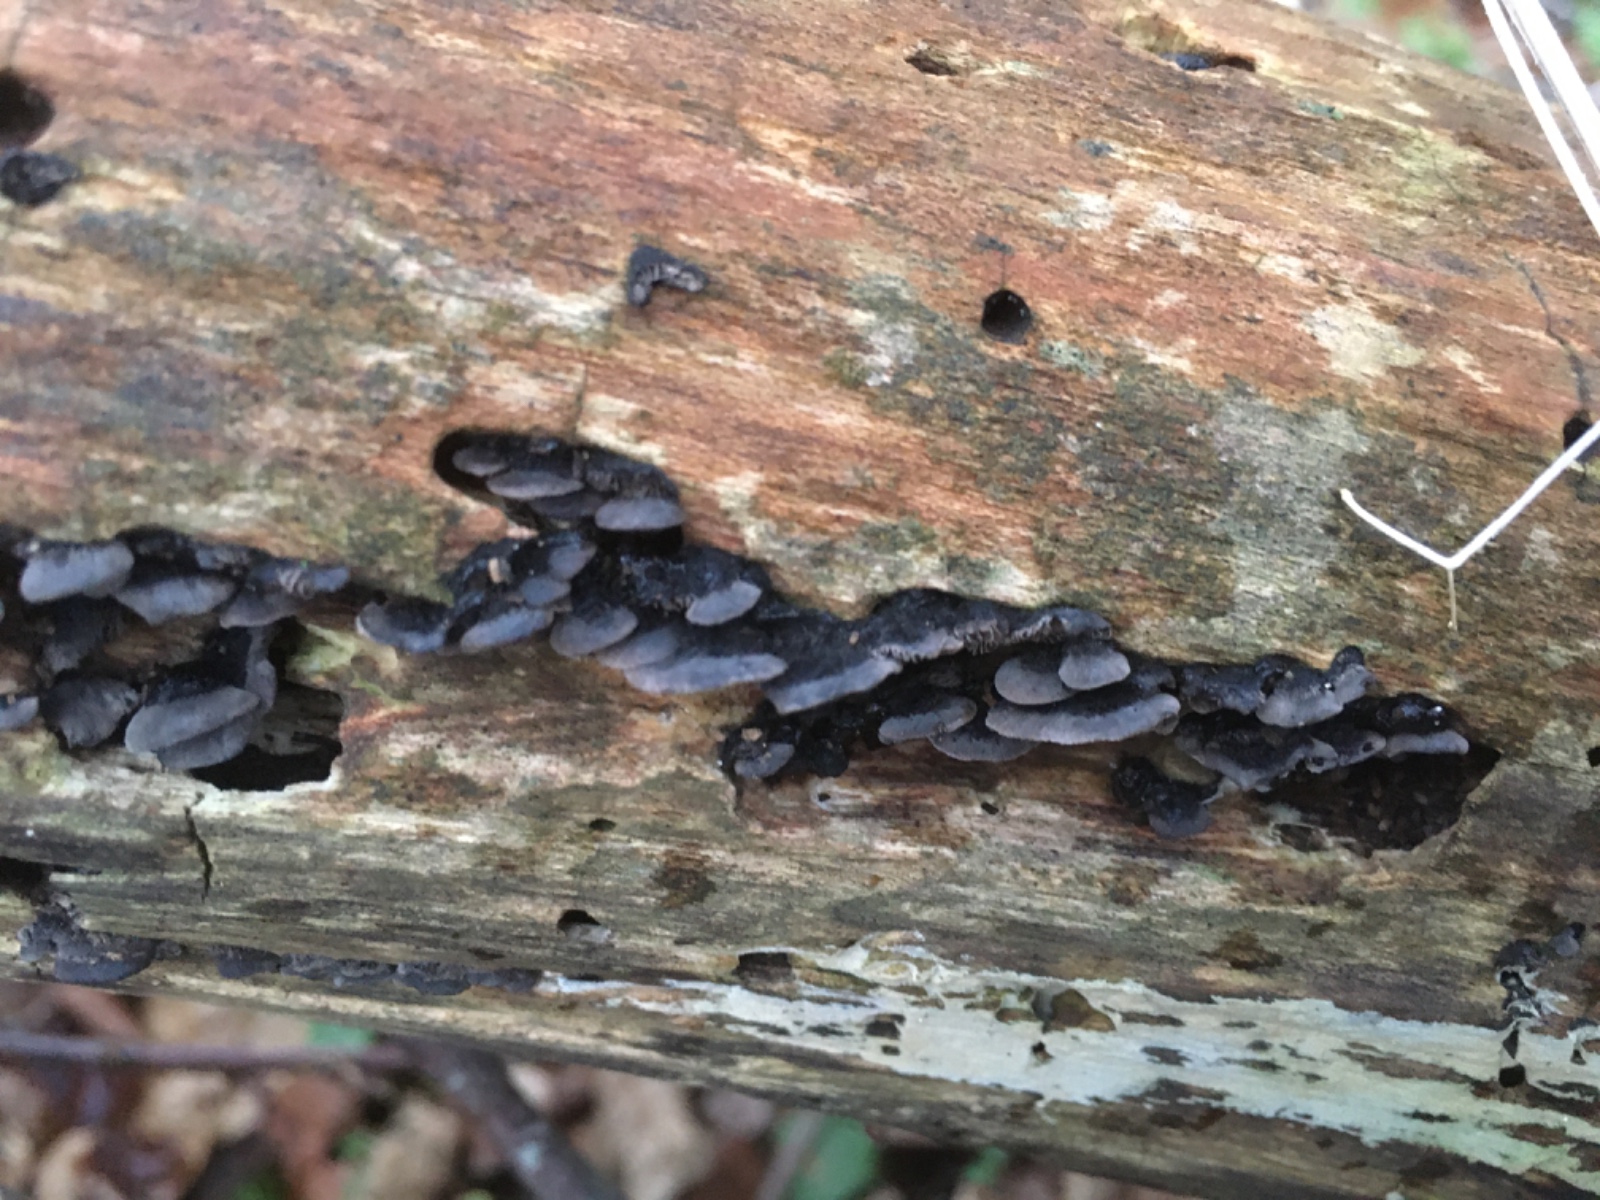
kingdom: Fungi
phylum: Basidiomycota
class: Agaricomycetes
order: Agaricales
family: Pleurotaceae
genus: Resupinatus
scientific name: Resupinatus trichotis
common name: mørkfiltet barkhat
